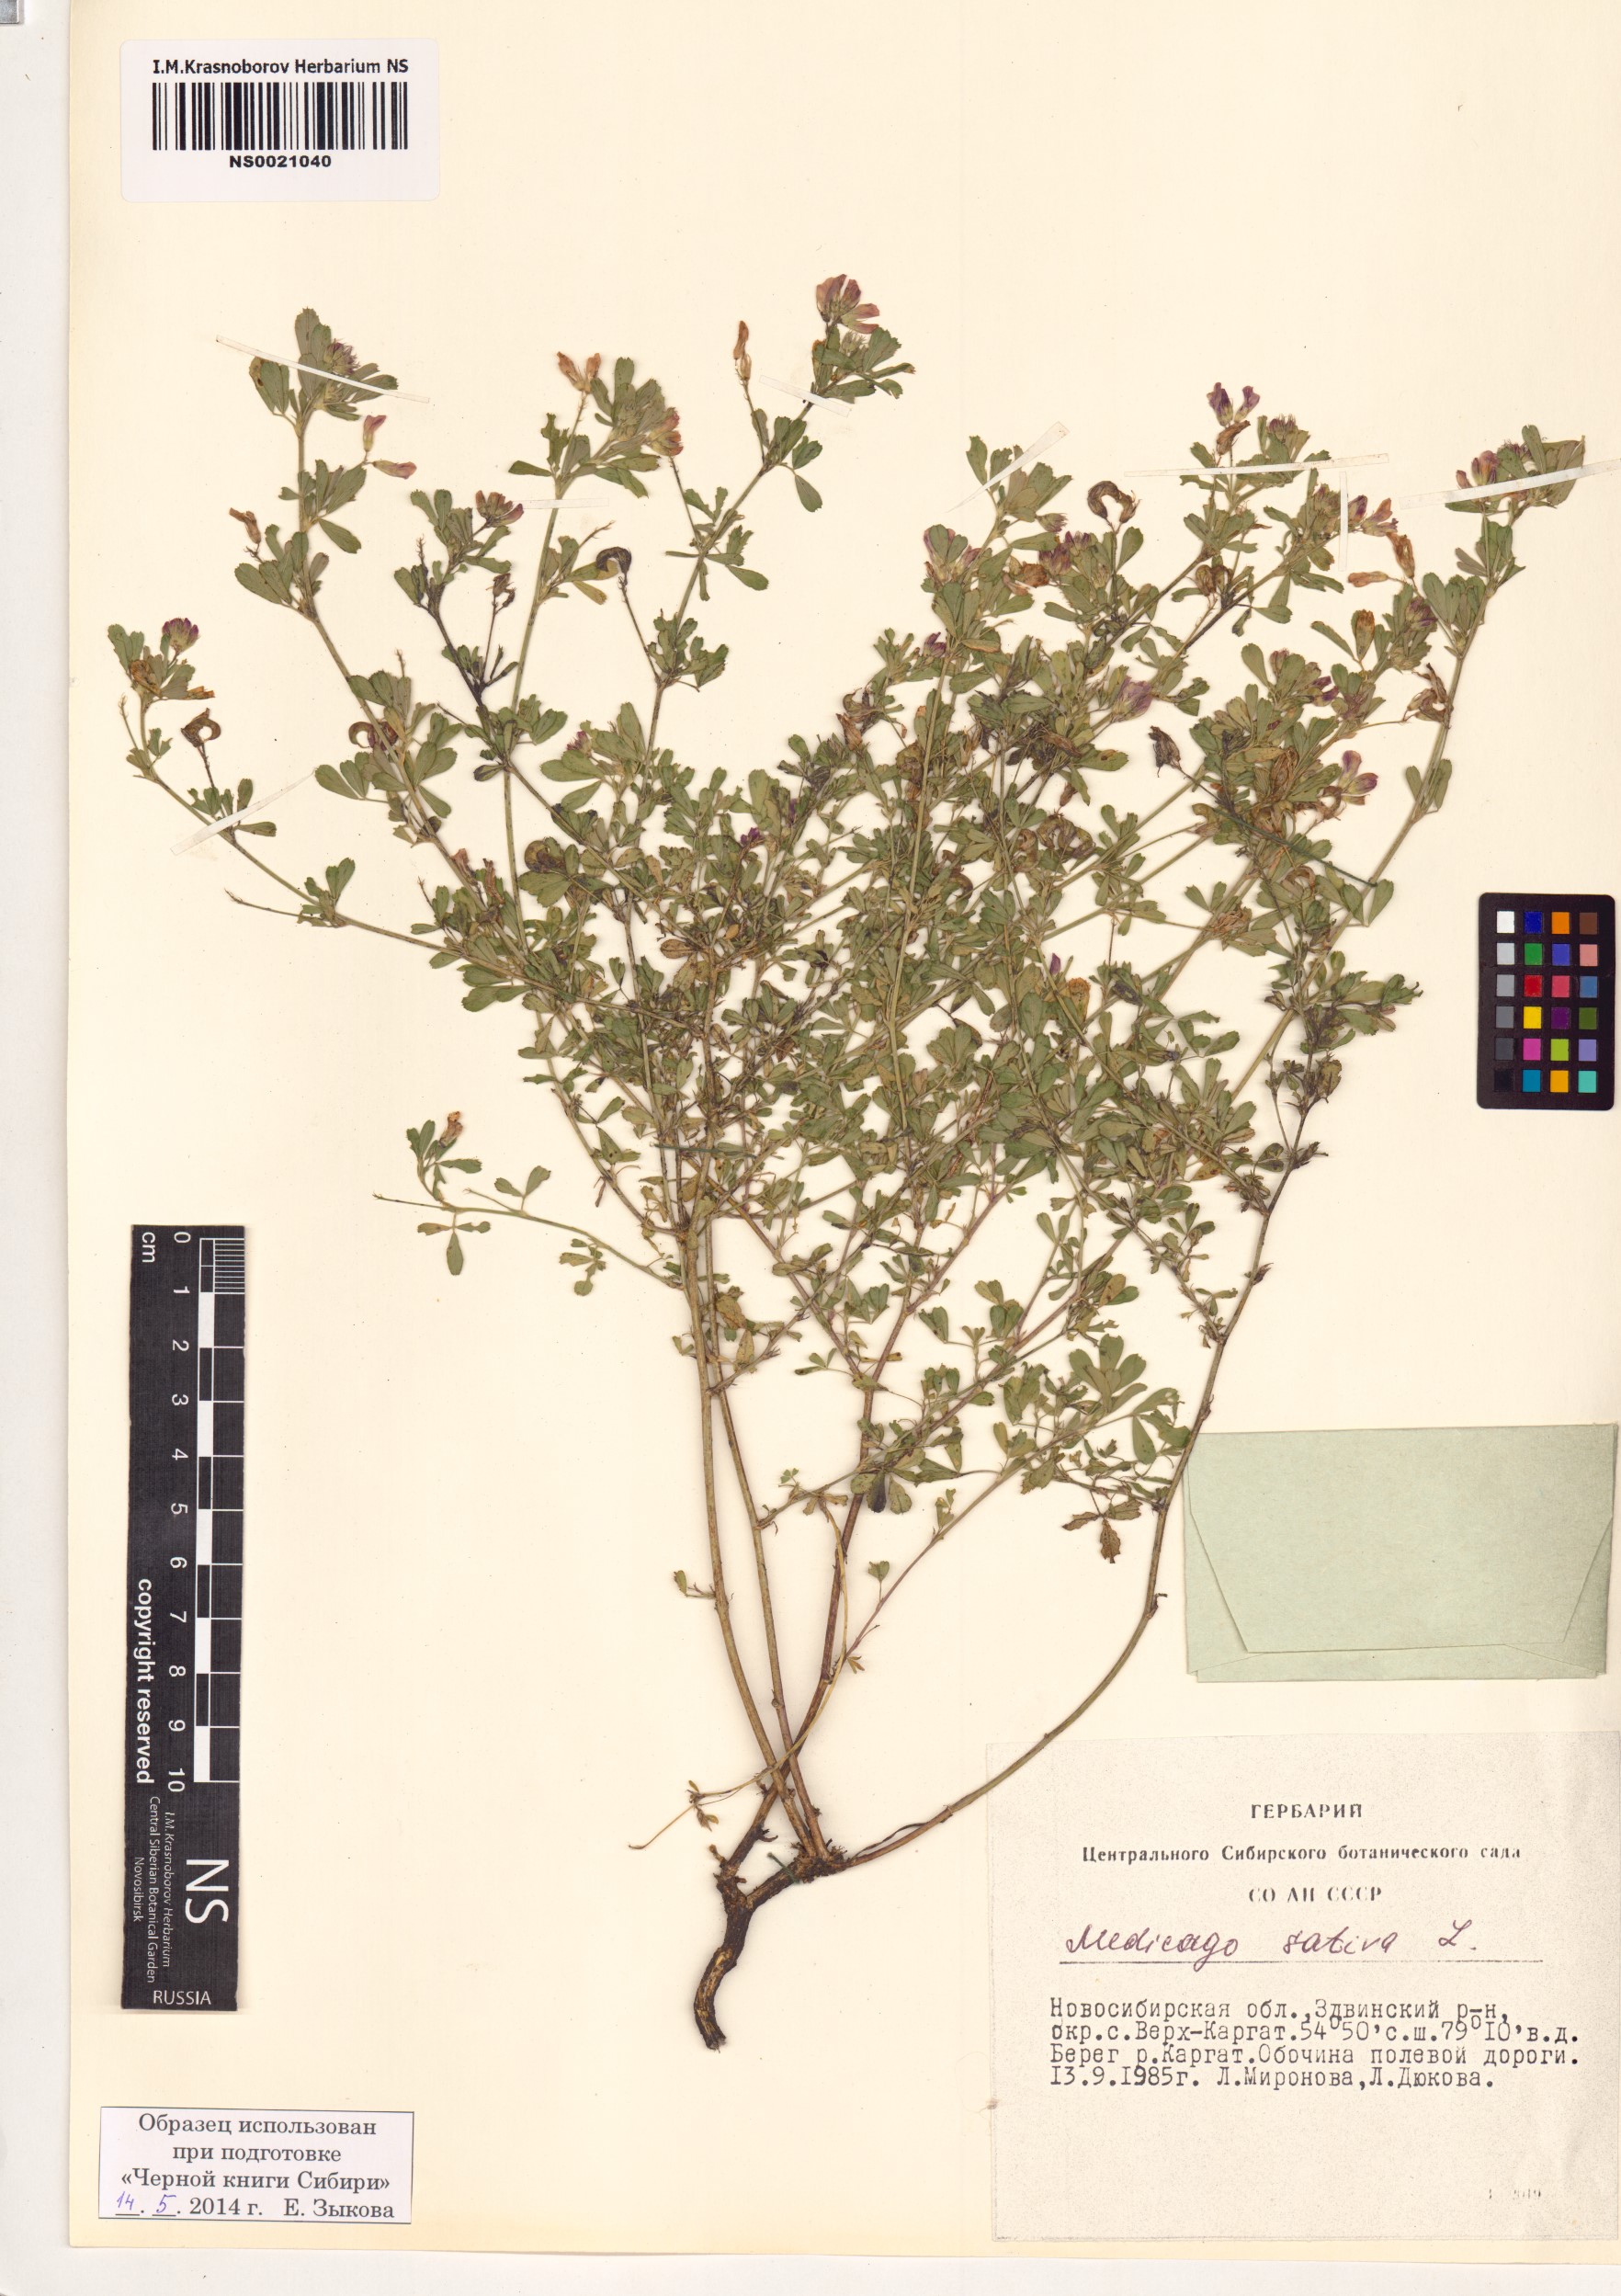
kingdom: Plantae
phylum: Tracheophyta
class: Magnoliopsida
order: Fabales
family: Fabaceae
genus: Medicago
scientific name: Medicago sativa
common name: Alfalfa
